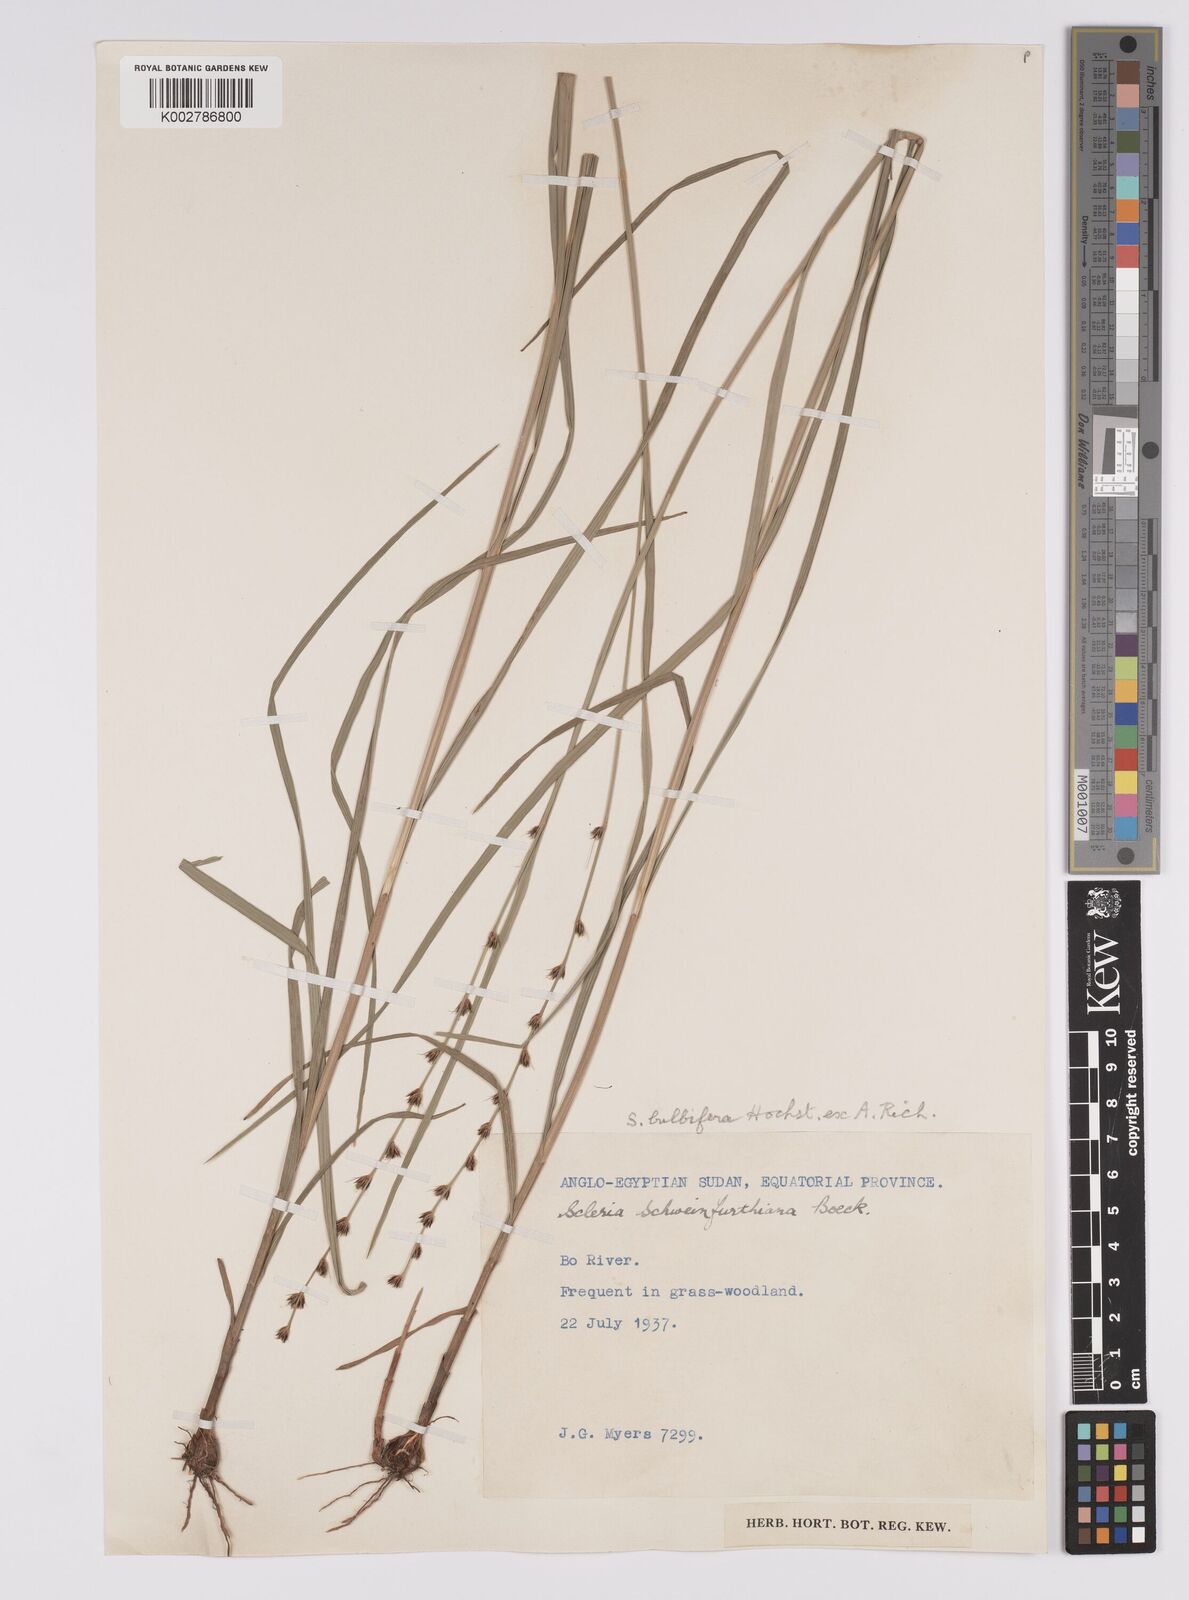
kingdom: Plantae
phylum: Tracheophyta
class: Liliopsida
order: Poales
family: Cyperaceae
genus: Scleria
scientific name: Scleria bulbifera
